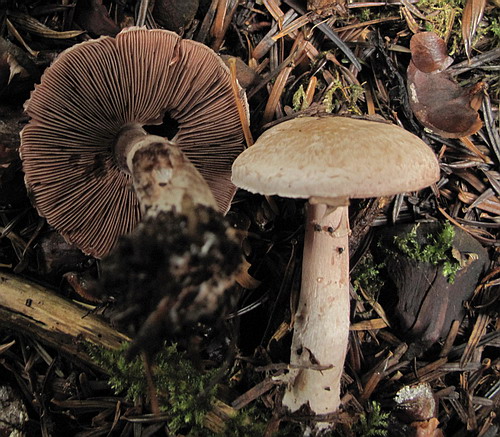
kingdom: Fungi
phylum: Basidiomycota
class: Agaricomycetes
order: Agaricales
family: Agaricaceae
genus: Agaricus
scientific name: Agaricus langei
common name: stor blod-champignon
